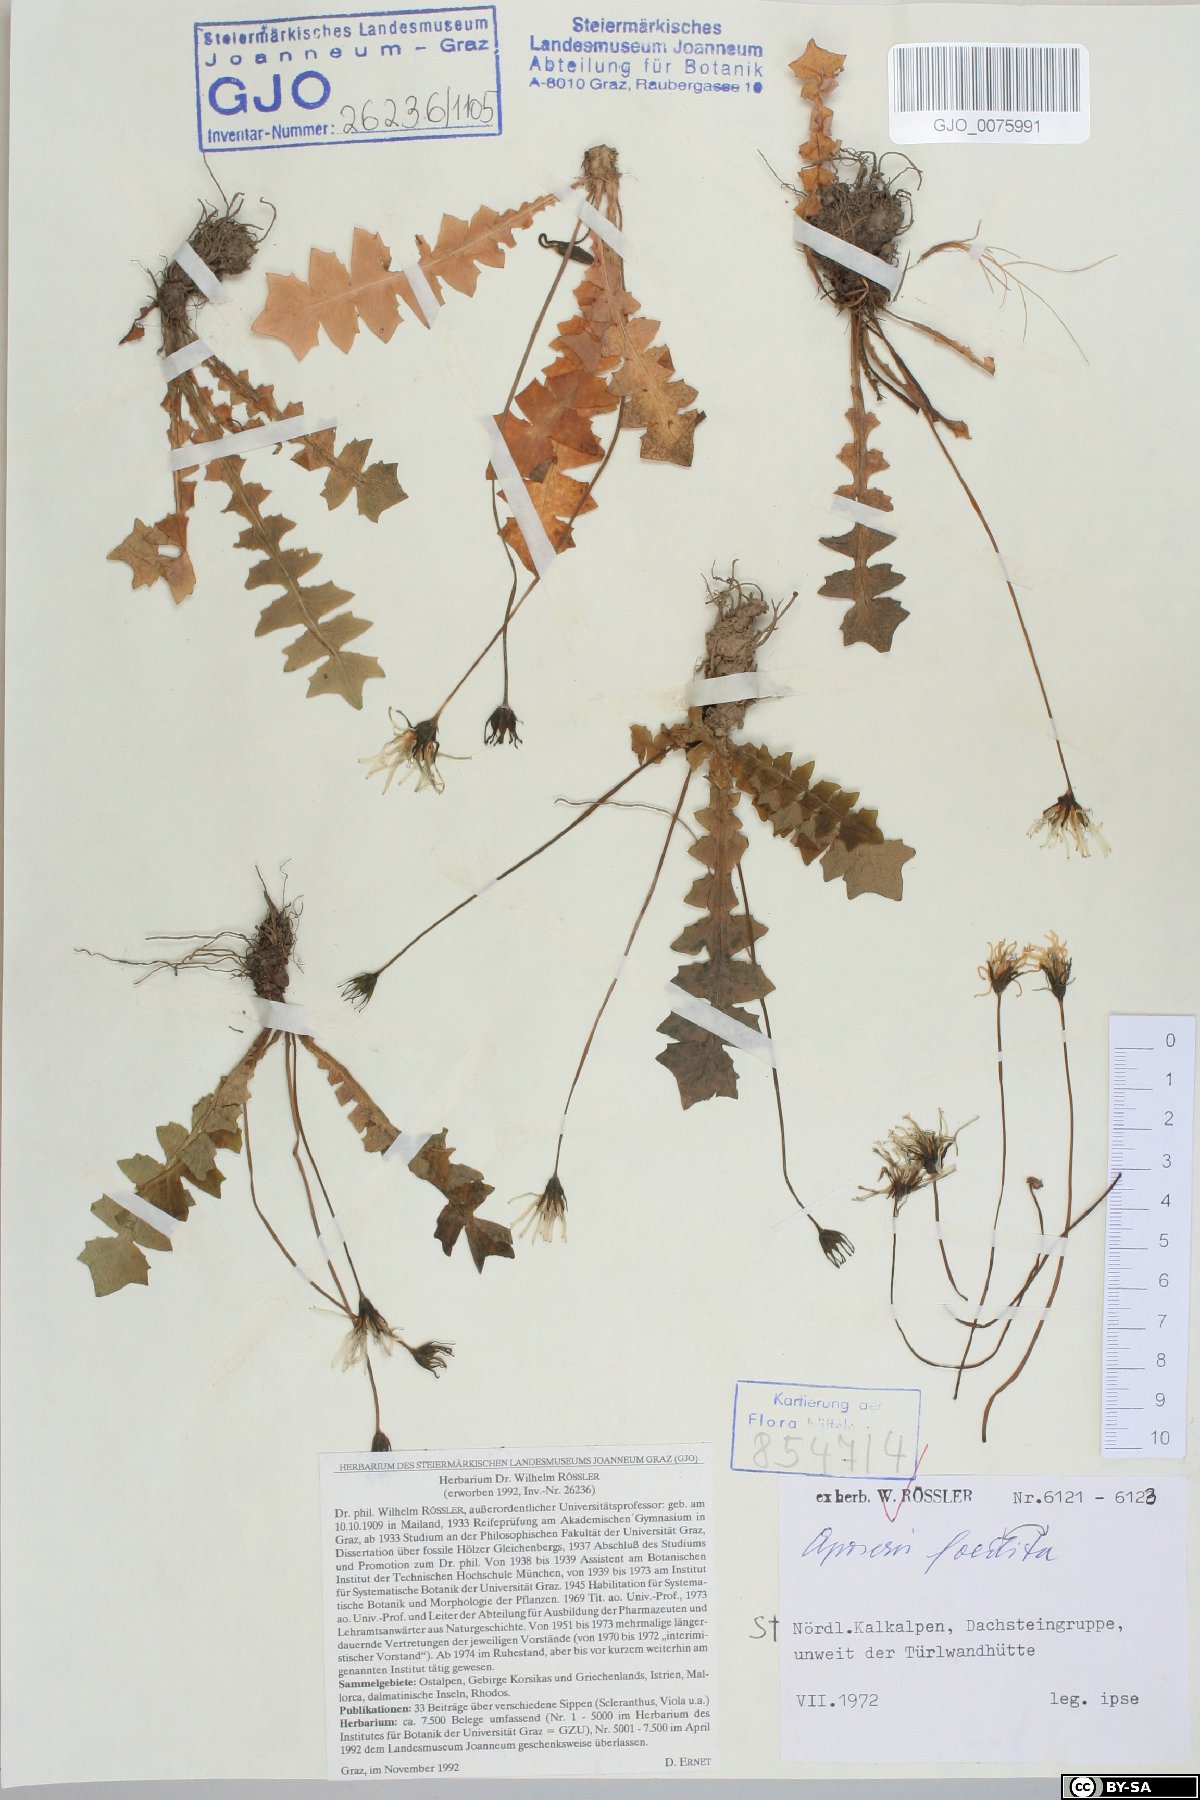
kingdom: Plantae
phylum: Tracheophyta
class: Magnoliopsida
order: Asterales
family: Asteraceae
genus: Aposeris
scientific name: Aposeris foetida
